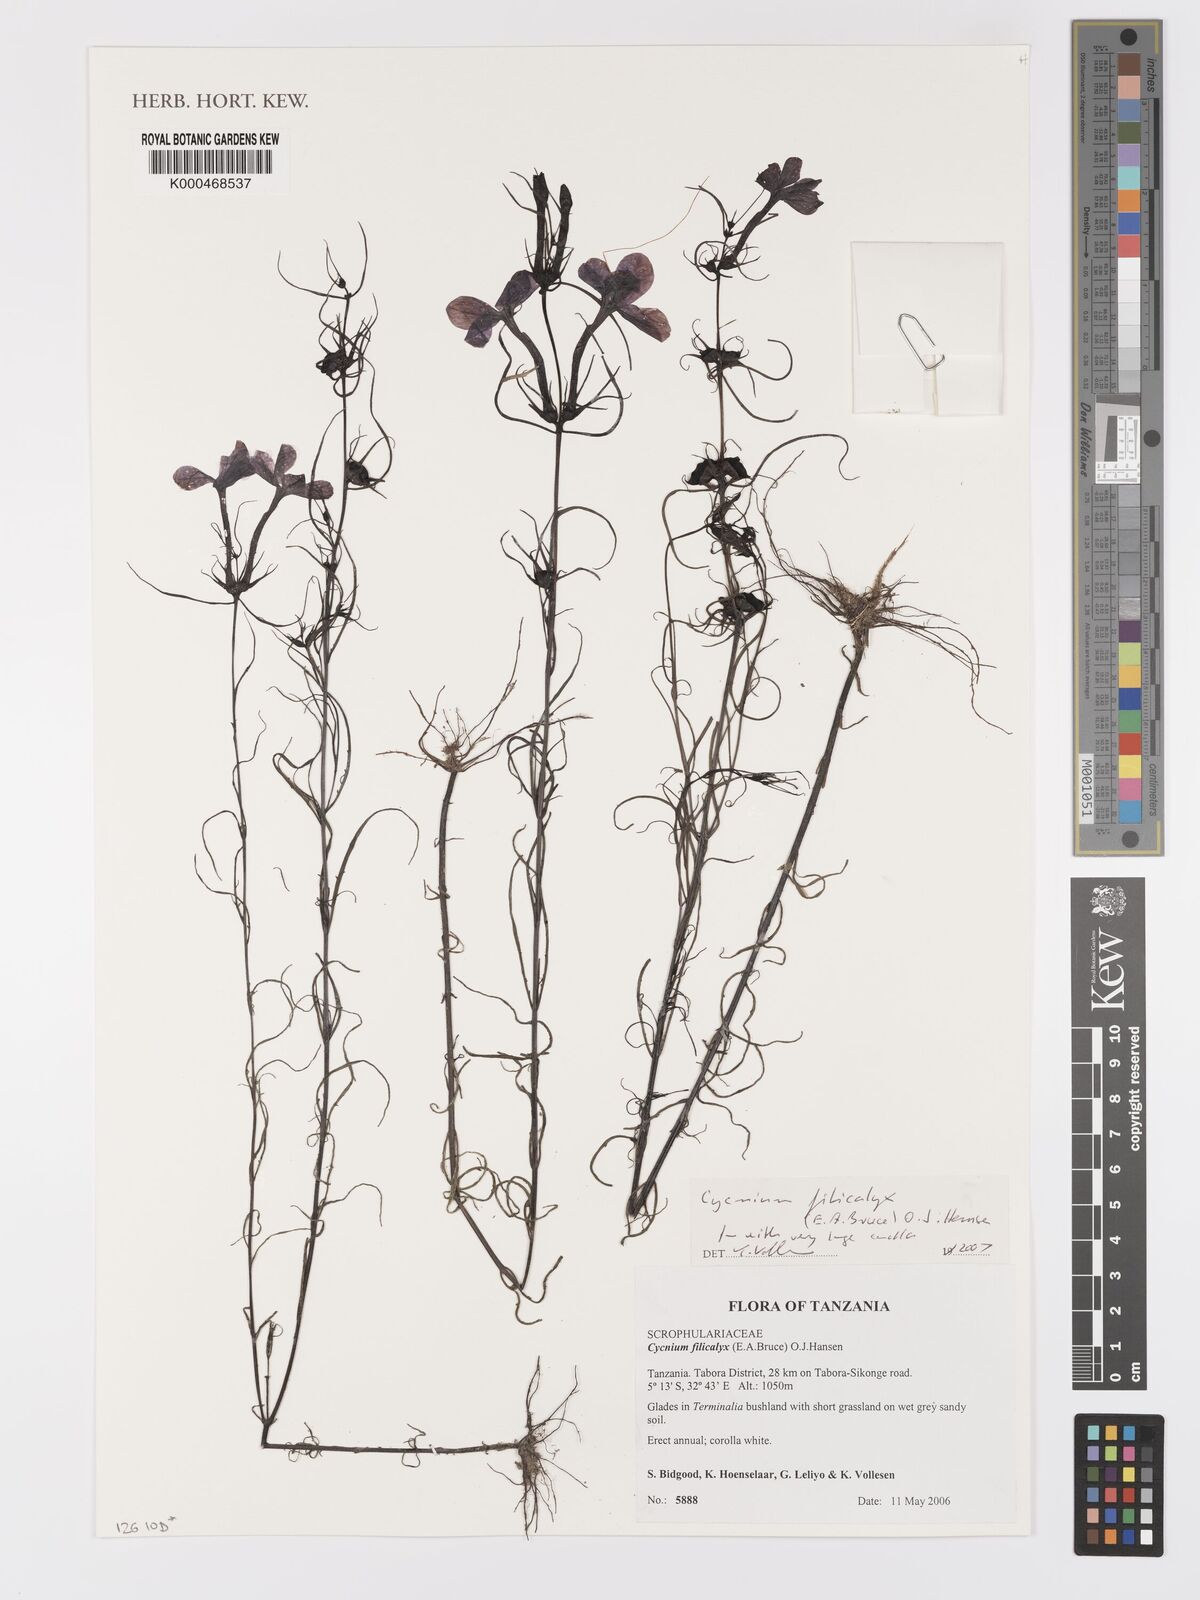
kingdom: Plantae
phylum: Tracheophyta
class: Magnoliopsida
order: Lamiales
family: Orobanchaceae
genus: Cycnium
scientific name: Cycnium filicalyx
